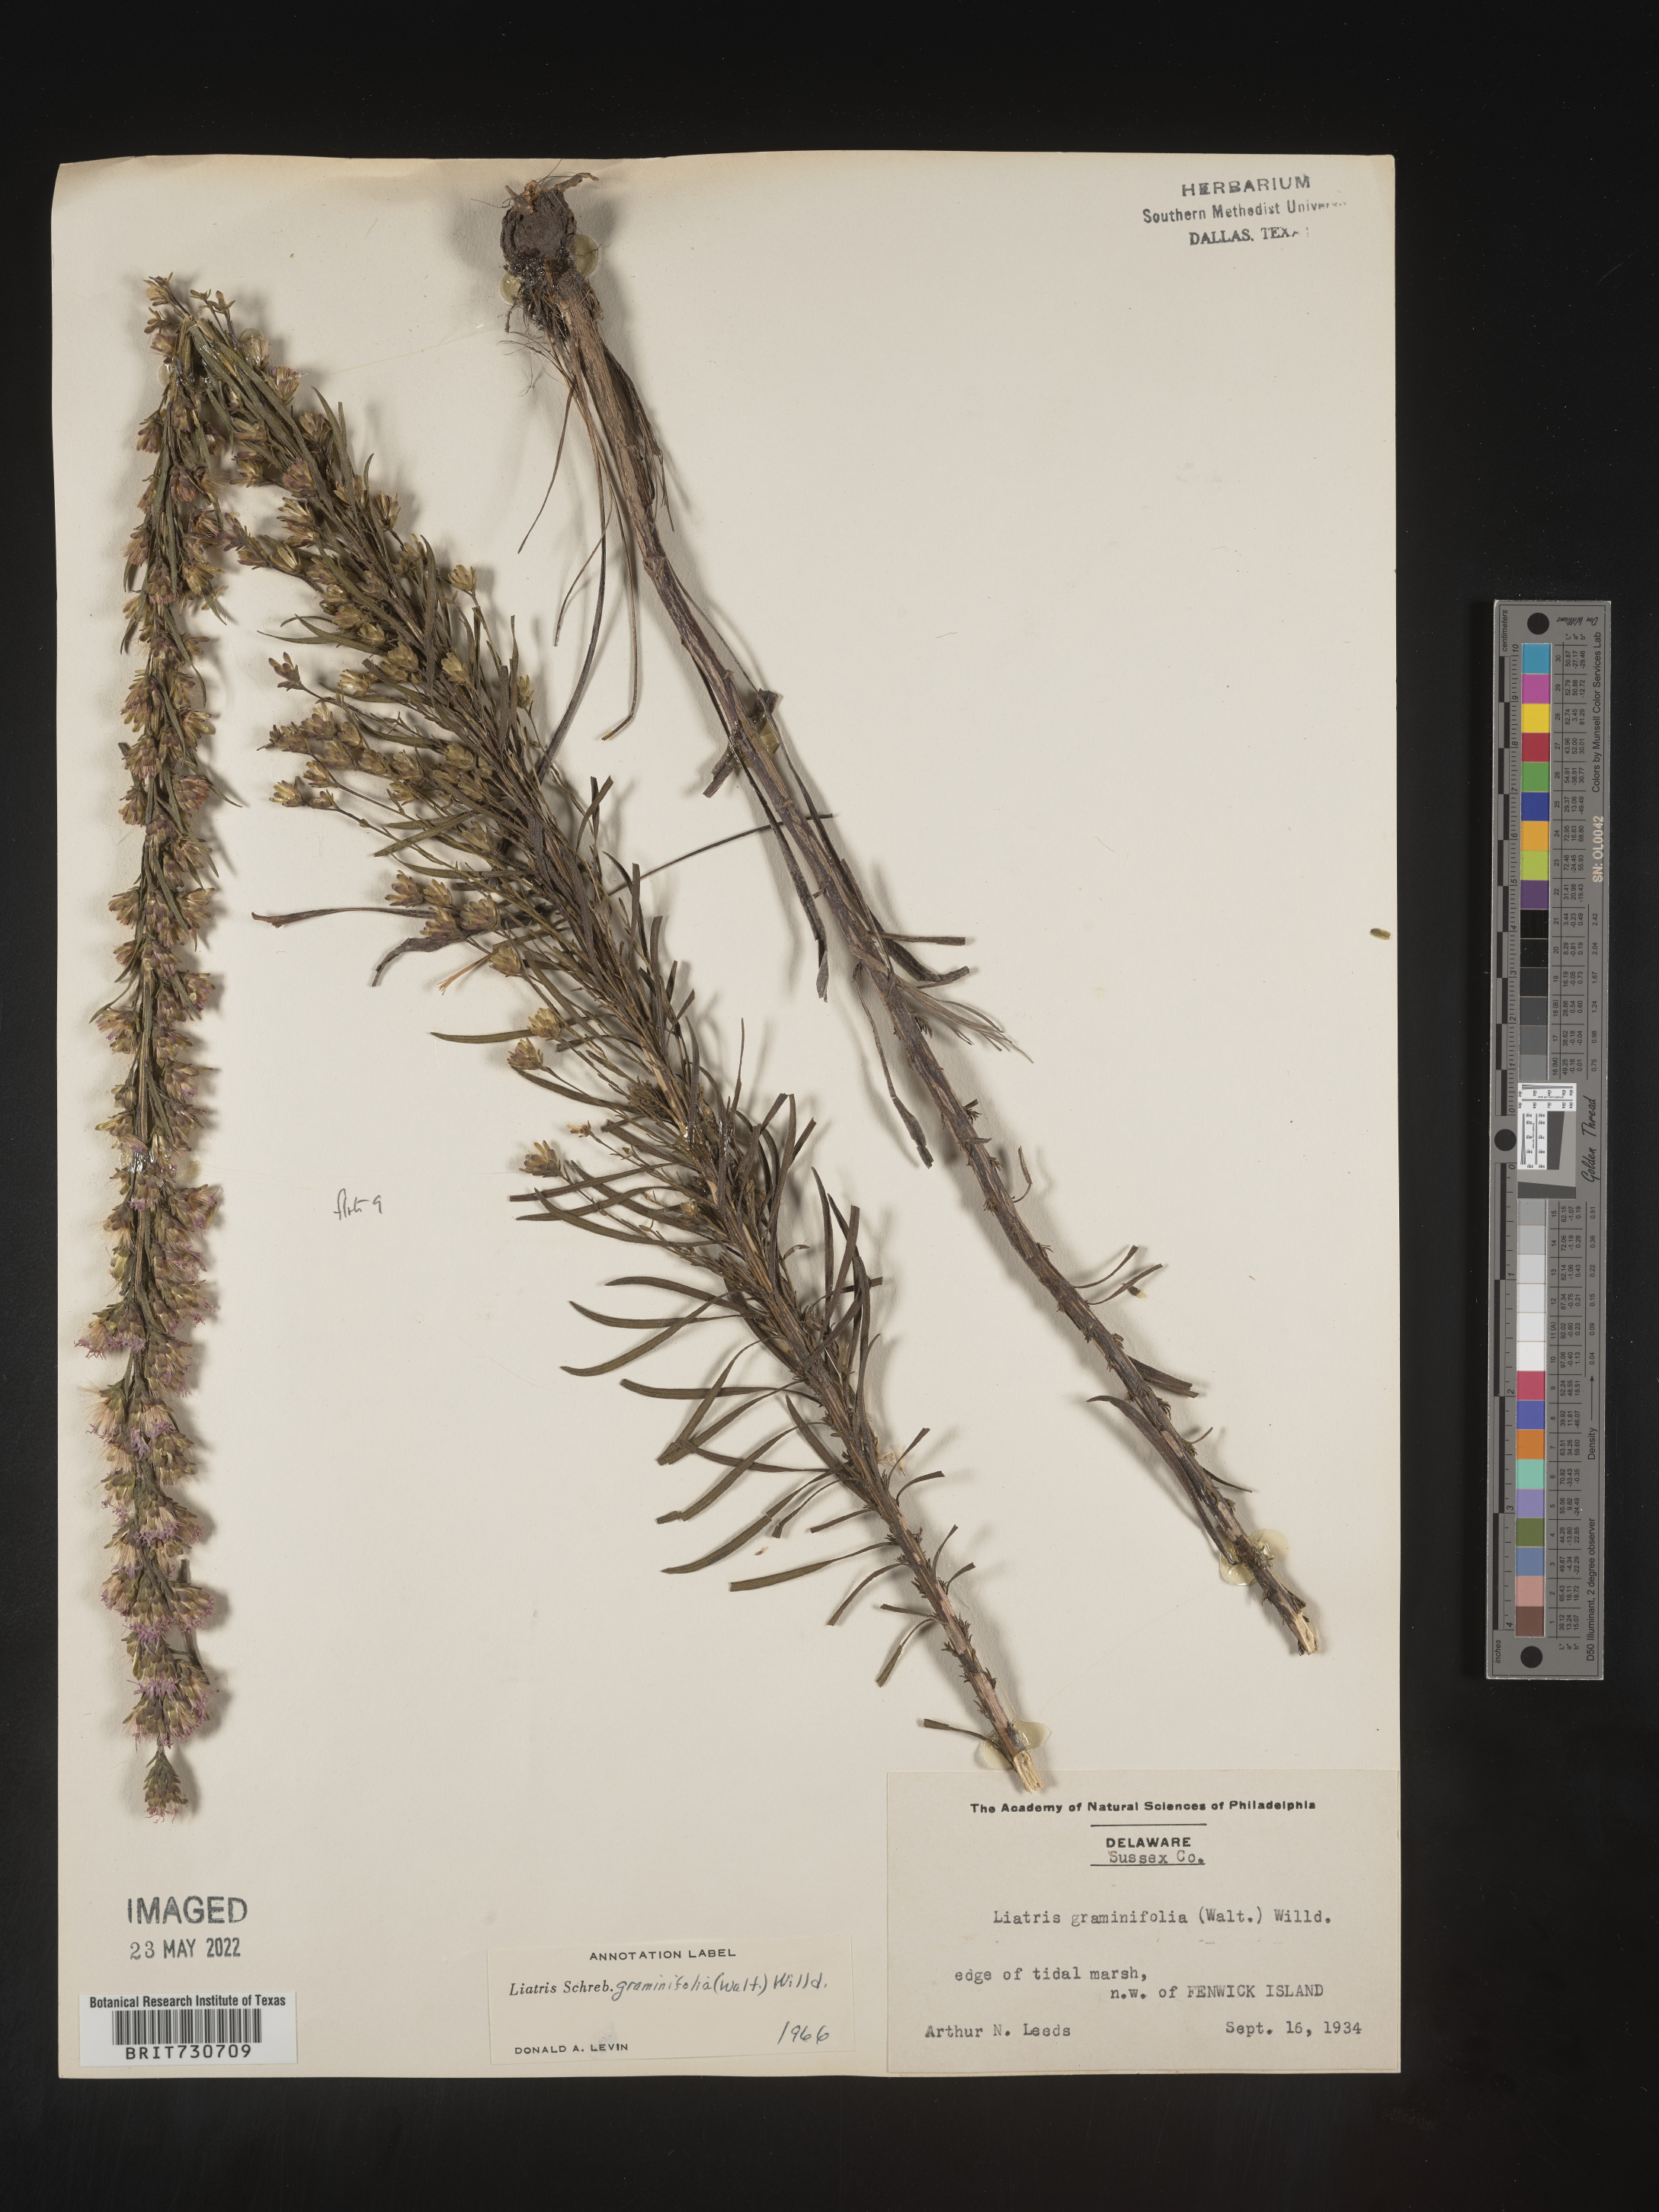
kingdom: Plantae
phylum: Tracheophyta
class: Magnoliopsida
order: Asterales
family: Asteraceae
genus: Liatris
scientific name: Liatris pilosa
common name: Grass-leaf gayfeather
